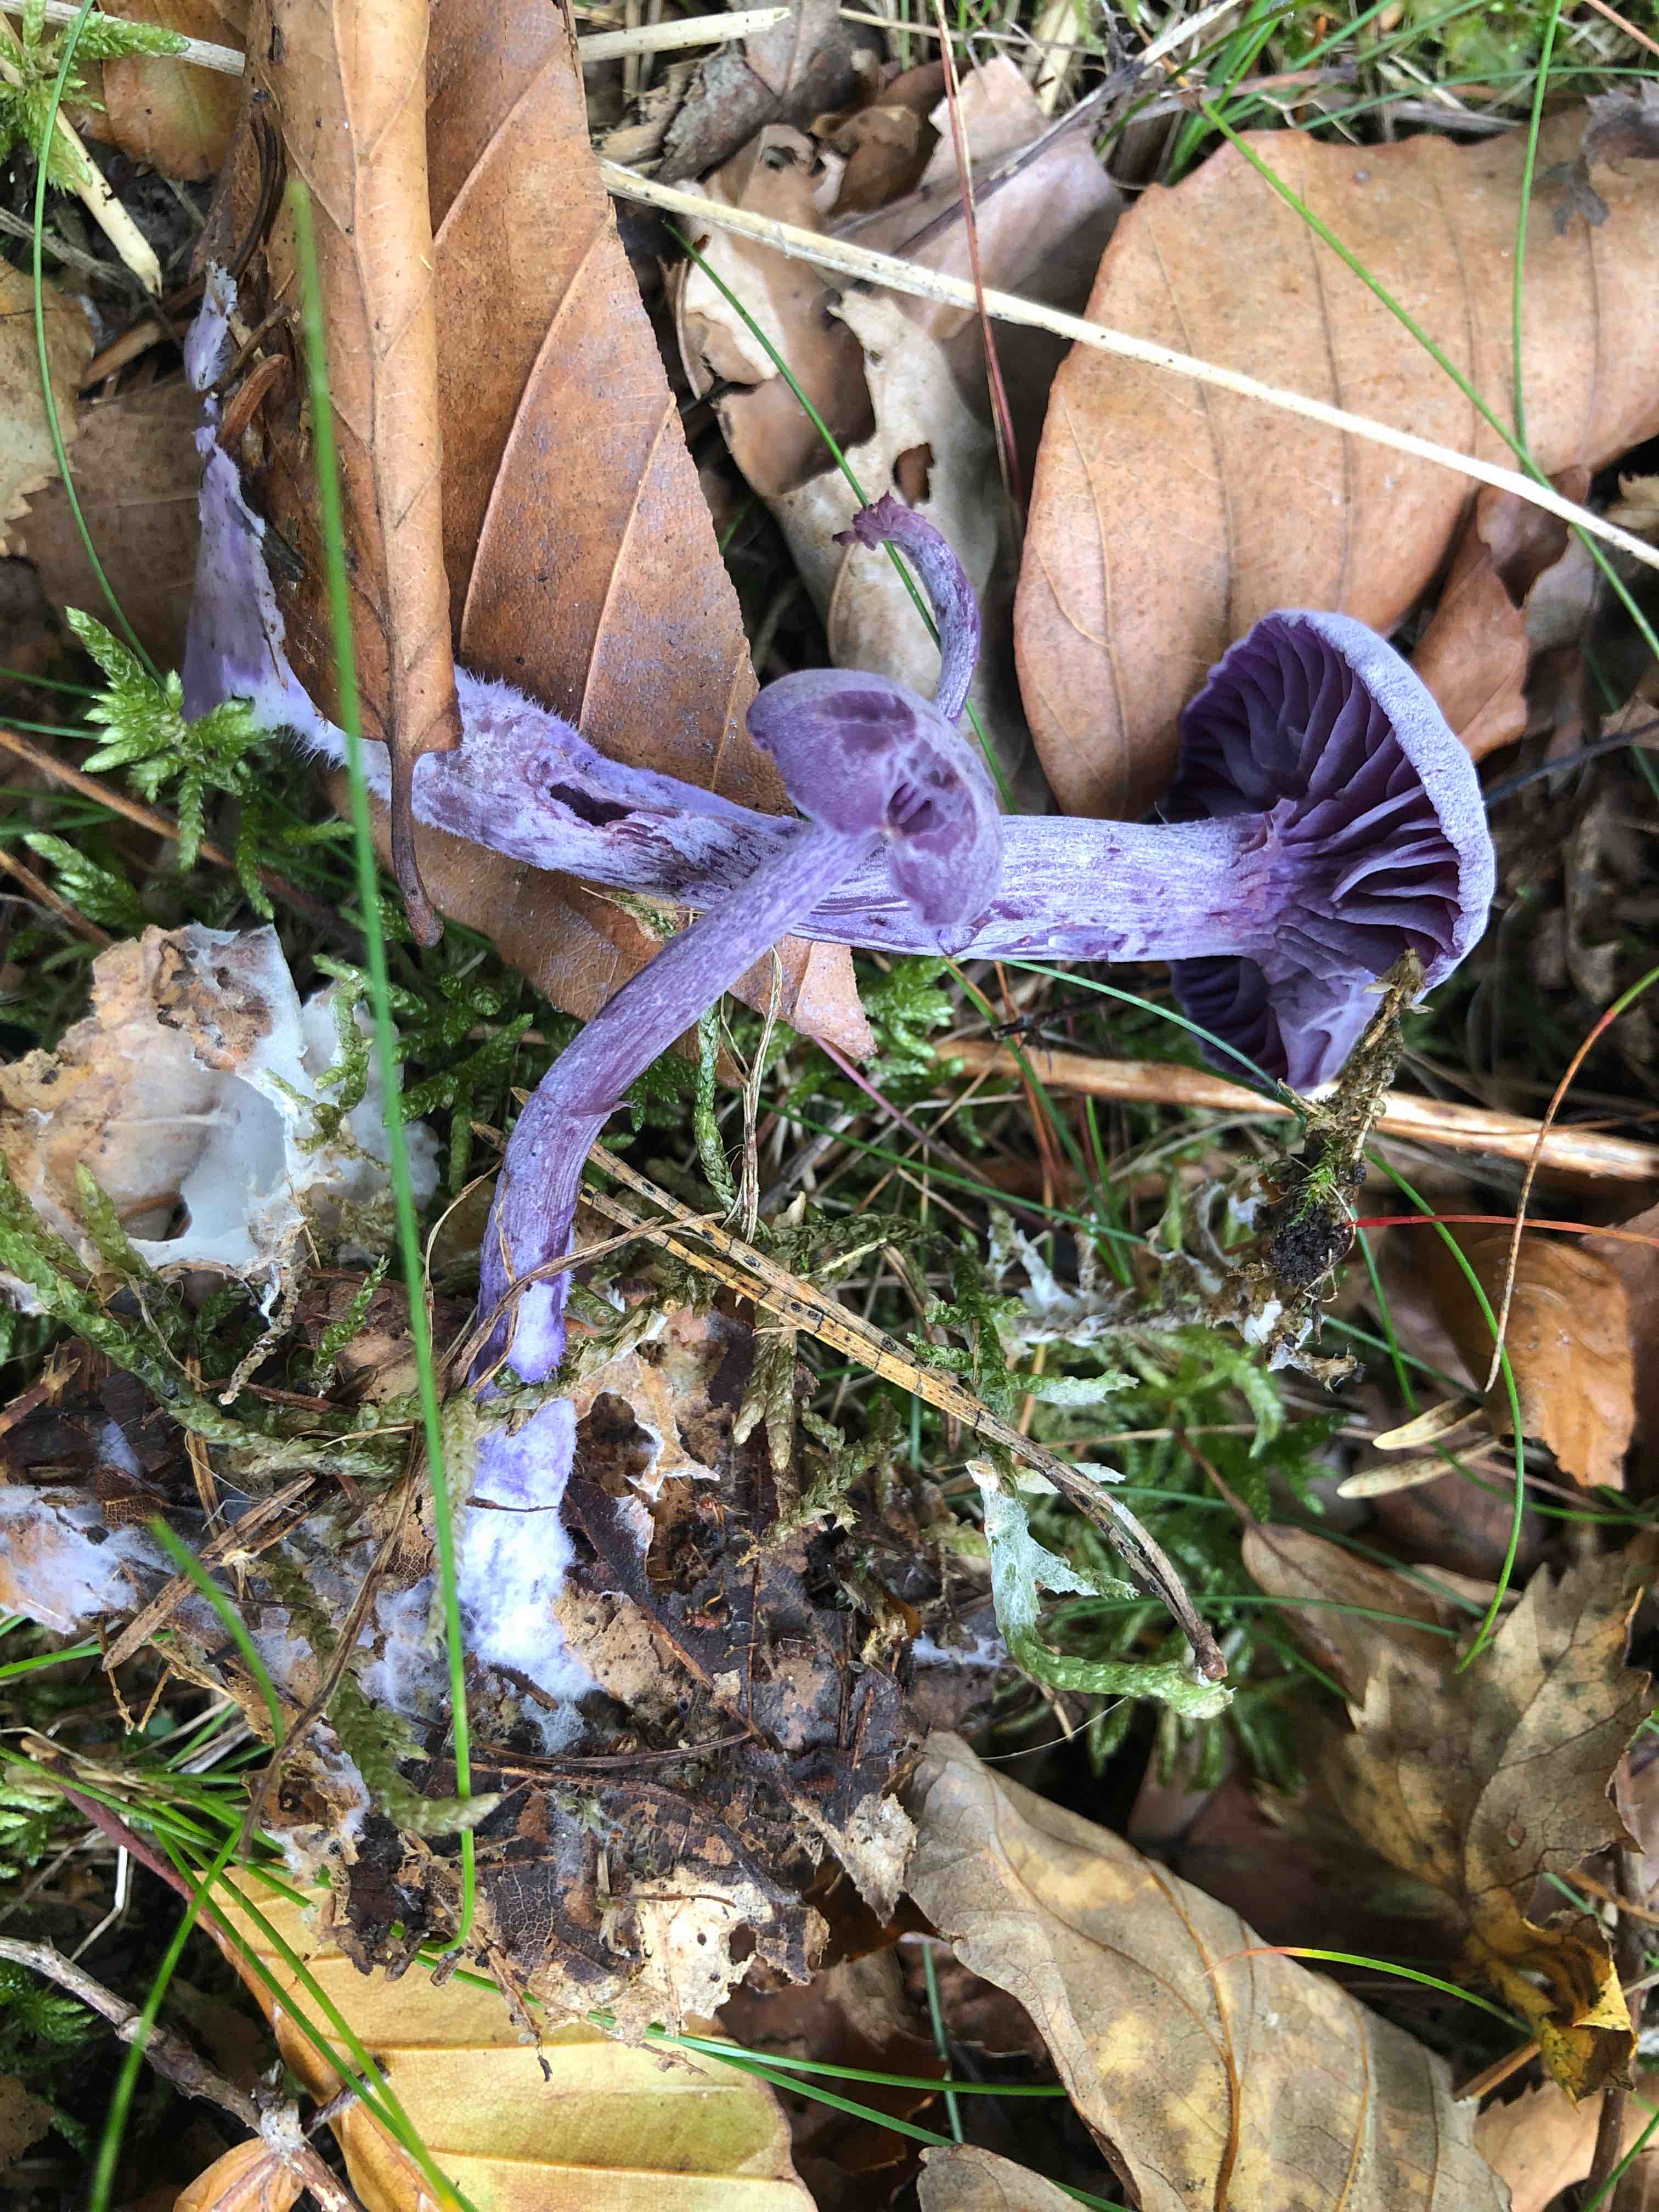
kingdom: Fungi
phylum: Basidiomycota
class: Agaricomycetes
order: Agaricales
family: Hydnangiaceae
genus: Laccaria
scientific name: Laccaria amethystina
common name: violet ametysthat
